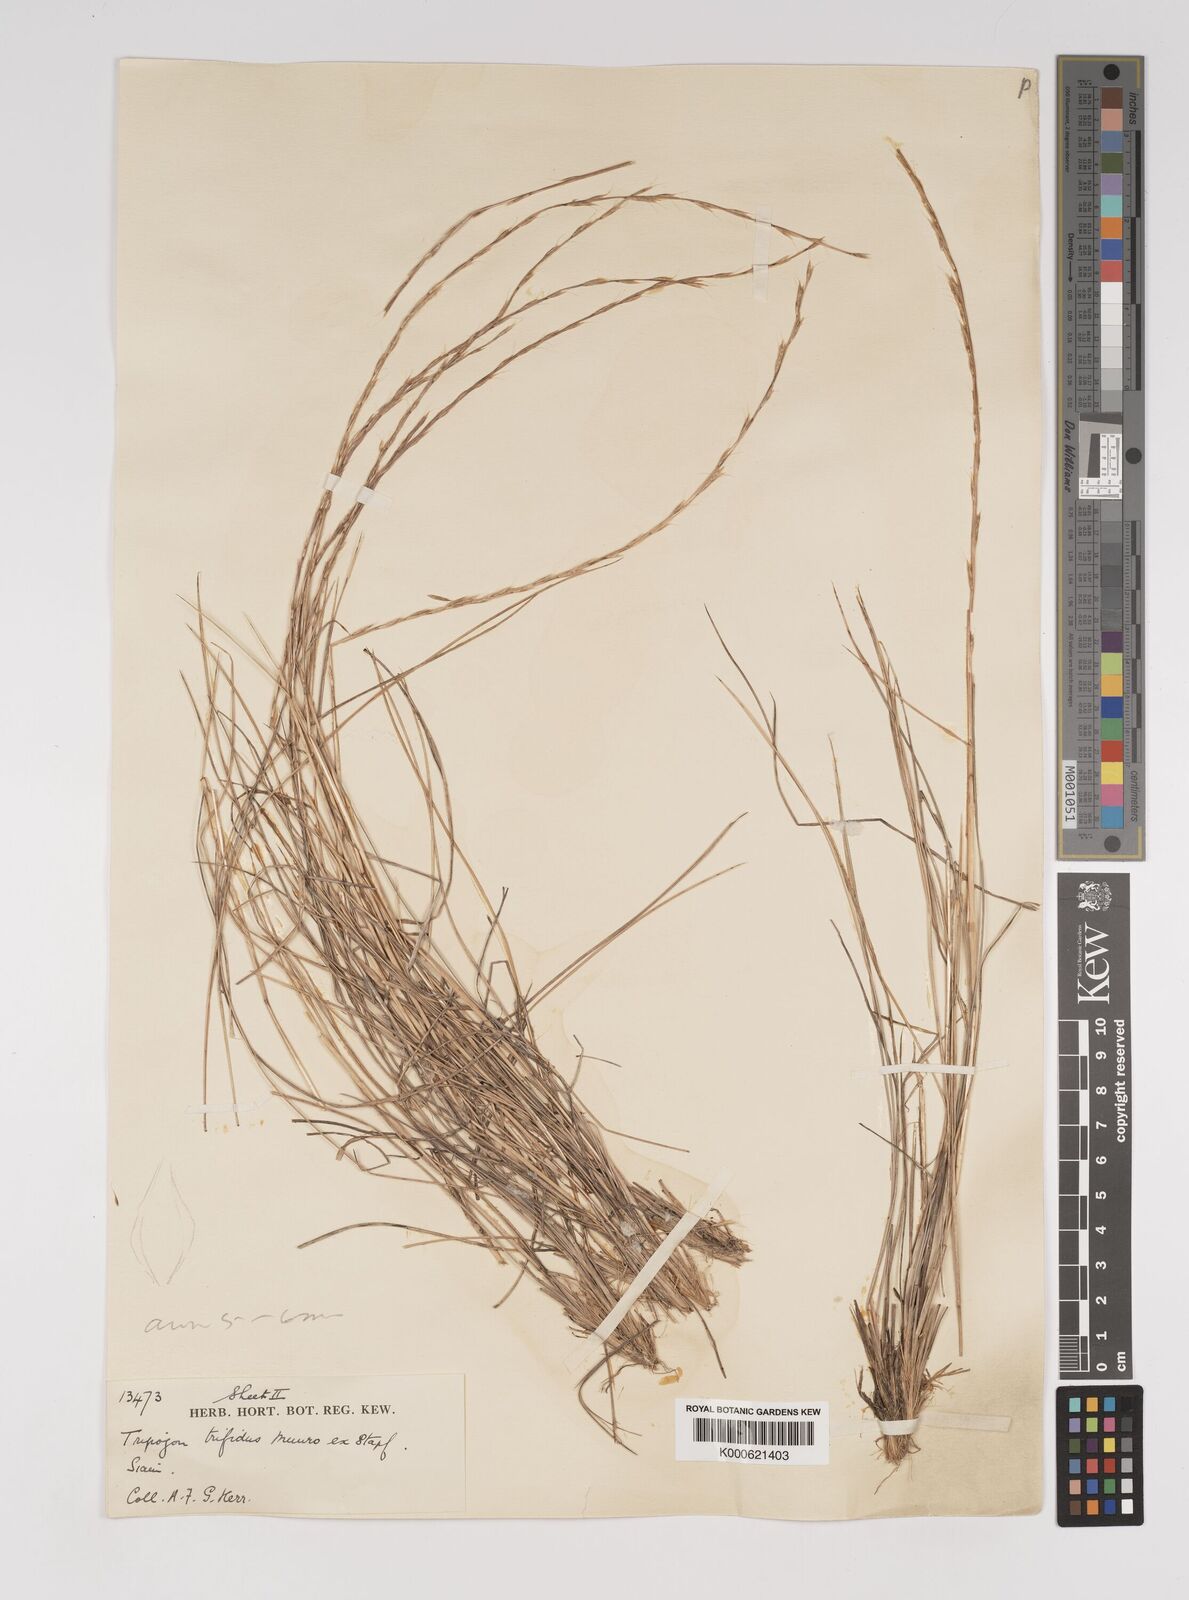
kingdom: Plantae
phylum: Tracheophyta
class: Liliopsida
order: Poales
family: Poaceae
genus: Tripogon
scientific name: Tripogon
